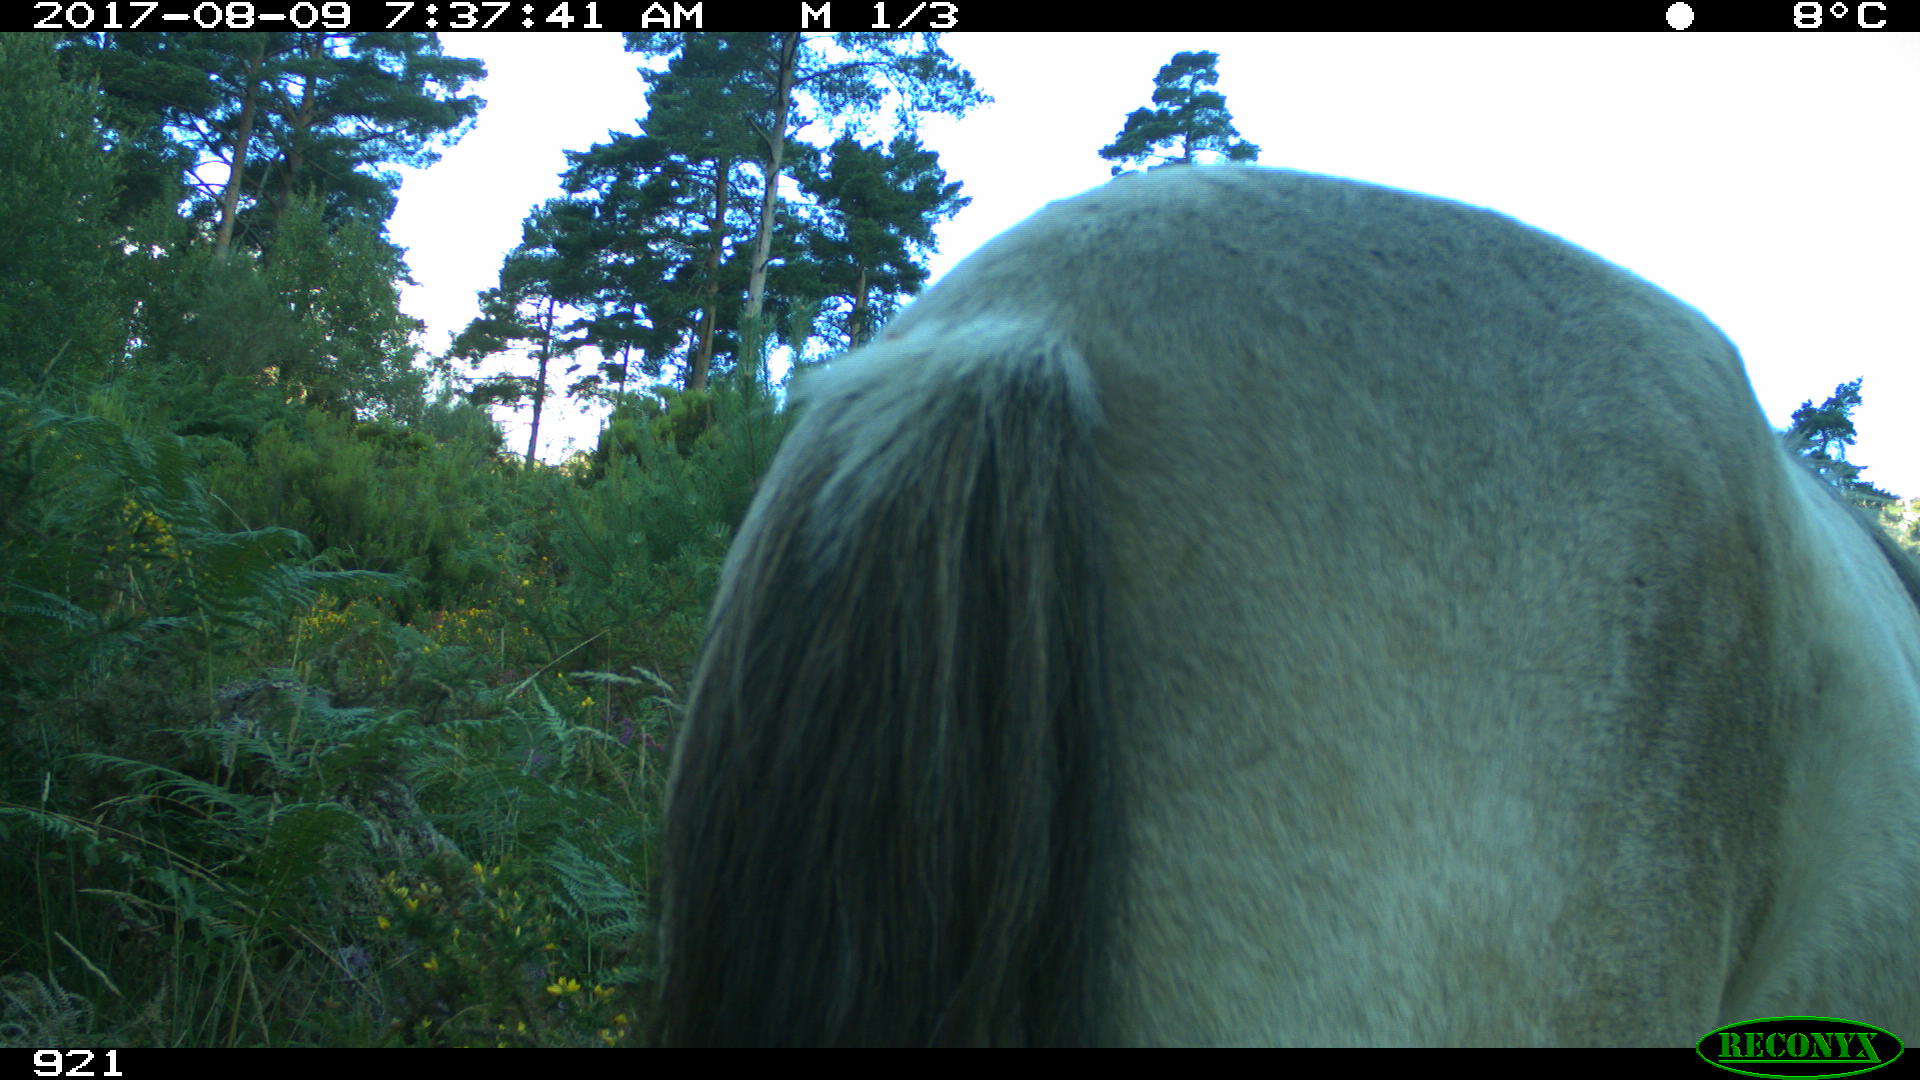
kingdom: Animalia
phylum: Chordata
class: Mammalia
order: Perissodactyla
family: Equidae
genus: Equus
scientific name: Equus caballus
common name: Horse
